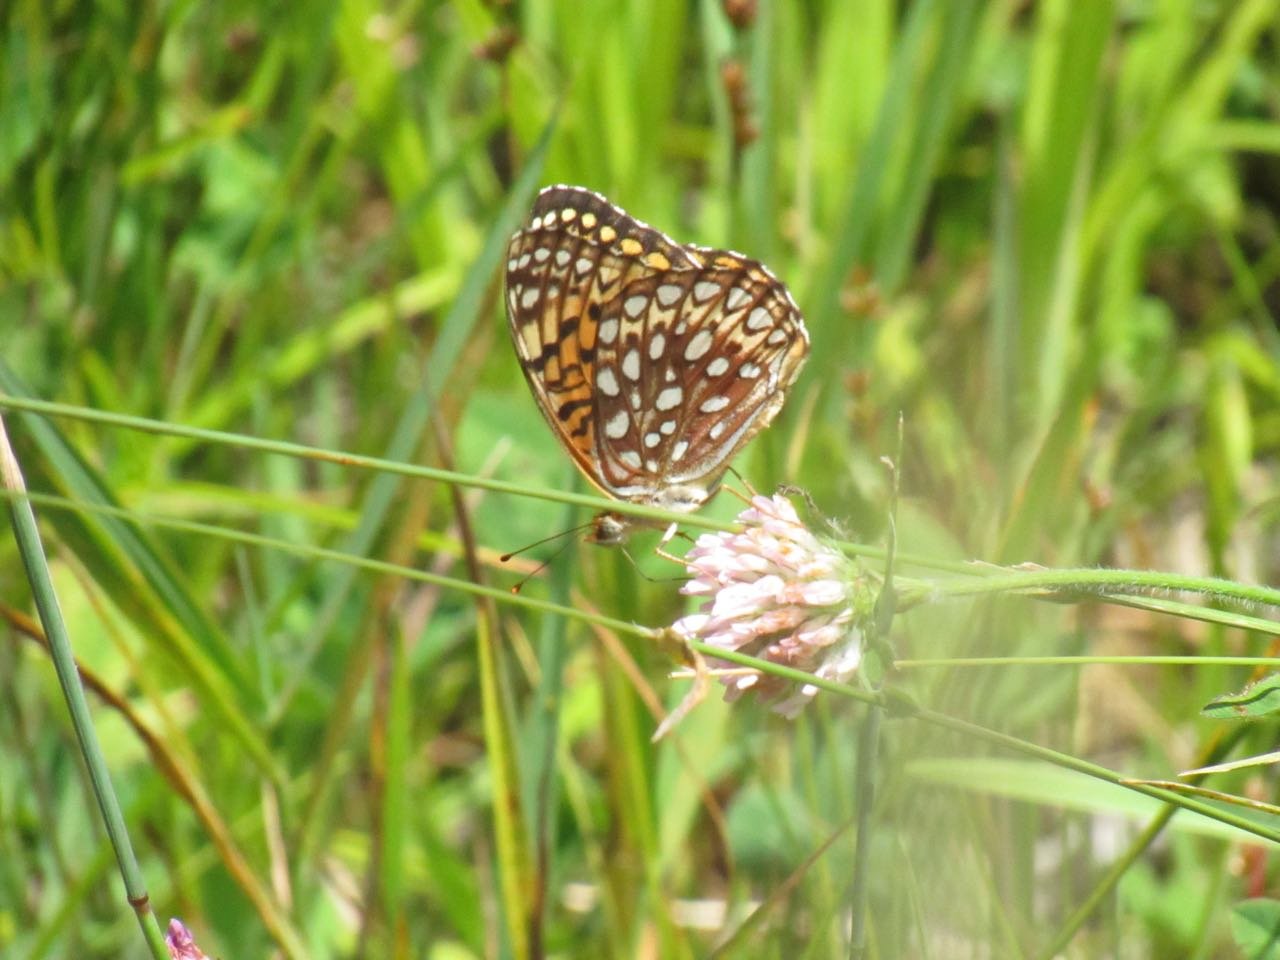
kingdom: Animalia
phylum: Arthropoda
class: Insecta
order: Lepidoptera
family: Nymphalidae
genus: Speyeria
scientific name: Speyeria atlantis
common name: Atlantis Fritillary
